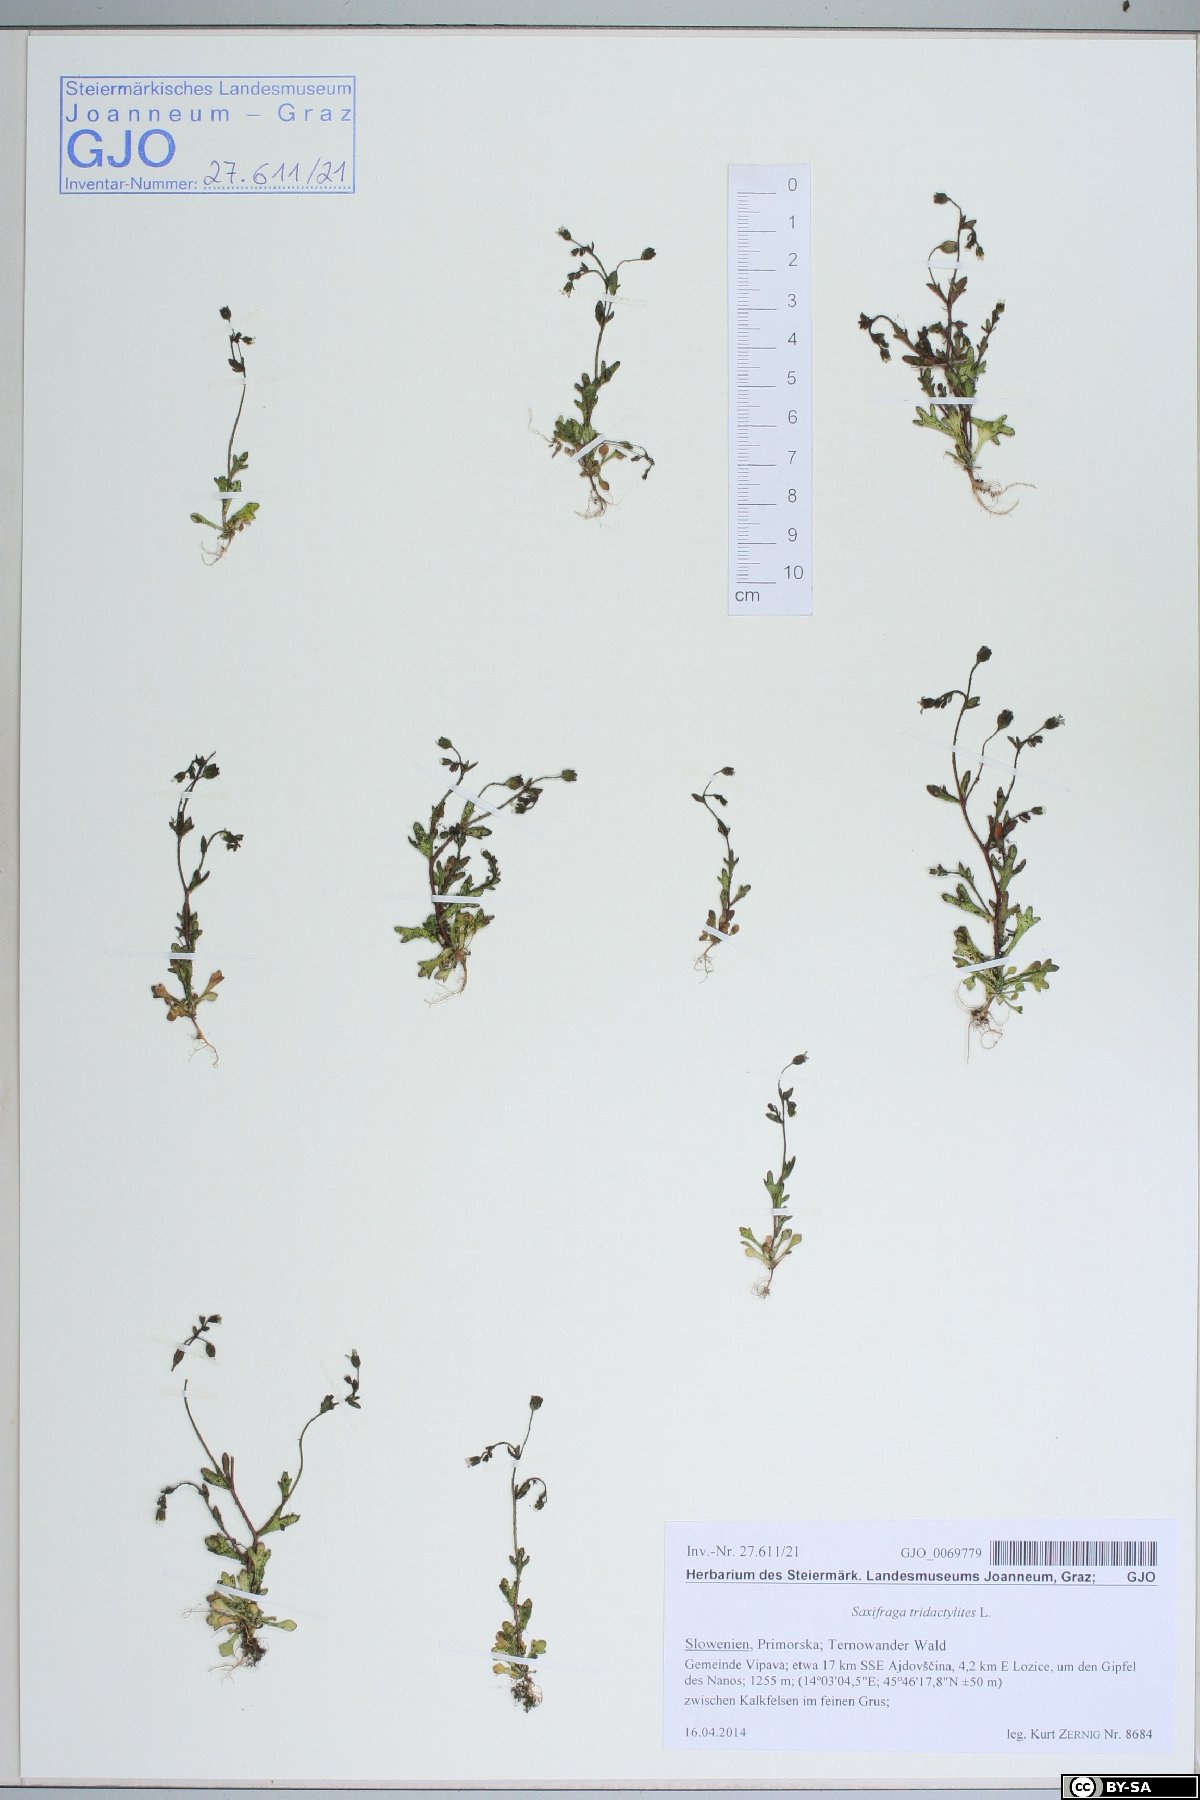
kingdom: Plantae
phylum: Tracheophyta
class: Magnoliopsida
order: Saxifragales
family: Saxifragaceae
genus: Saxifraga
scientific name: Saxifraga tridactylites
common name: Rue-leaved saxifrage
